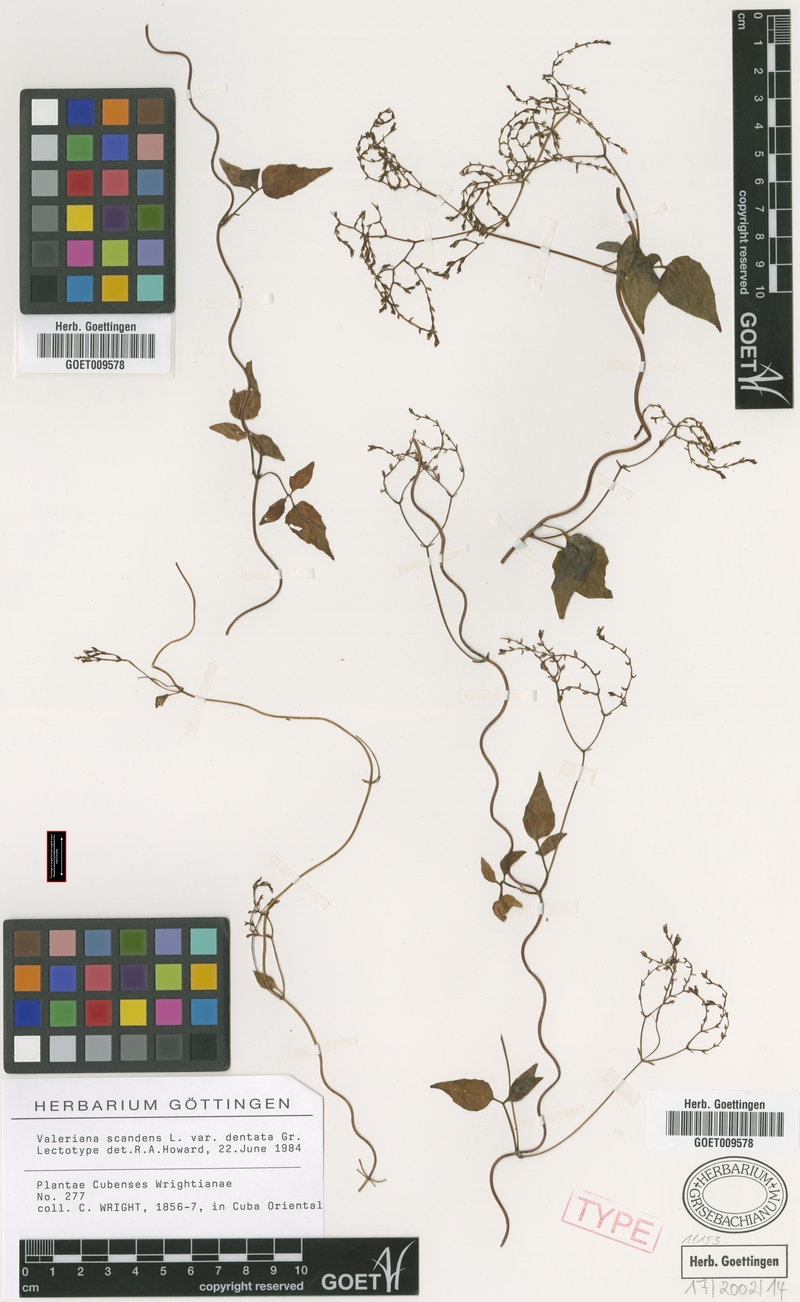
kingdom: Plantae
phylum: Tracheophyta
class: Magnoliopsida
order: Dipsacales
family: Caprifoliaceae
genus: Valeriana
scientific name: Valeriana
